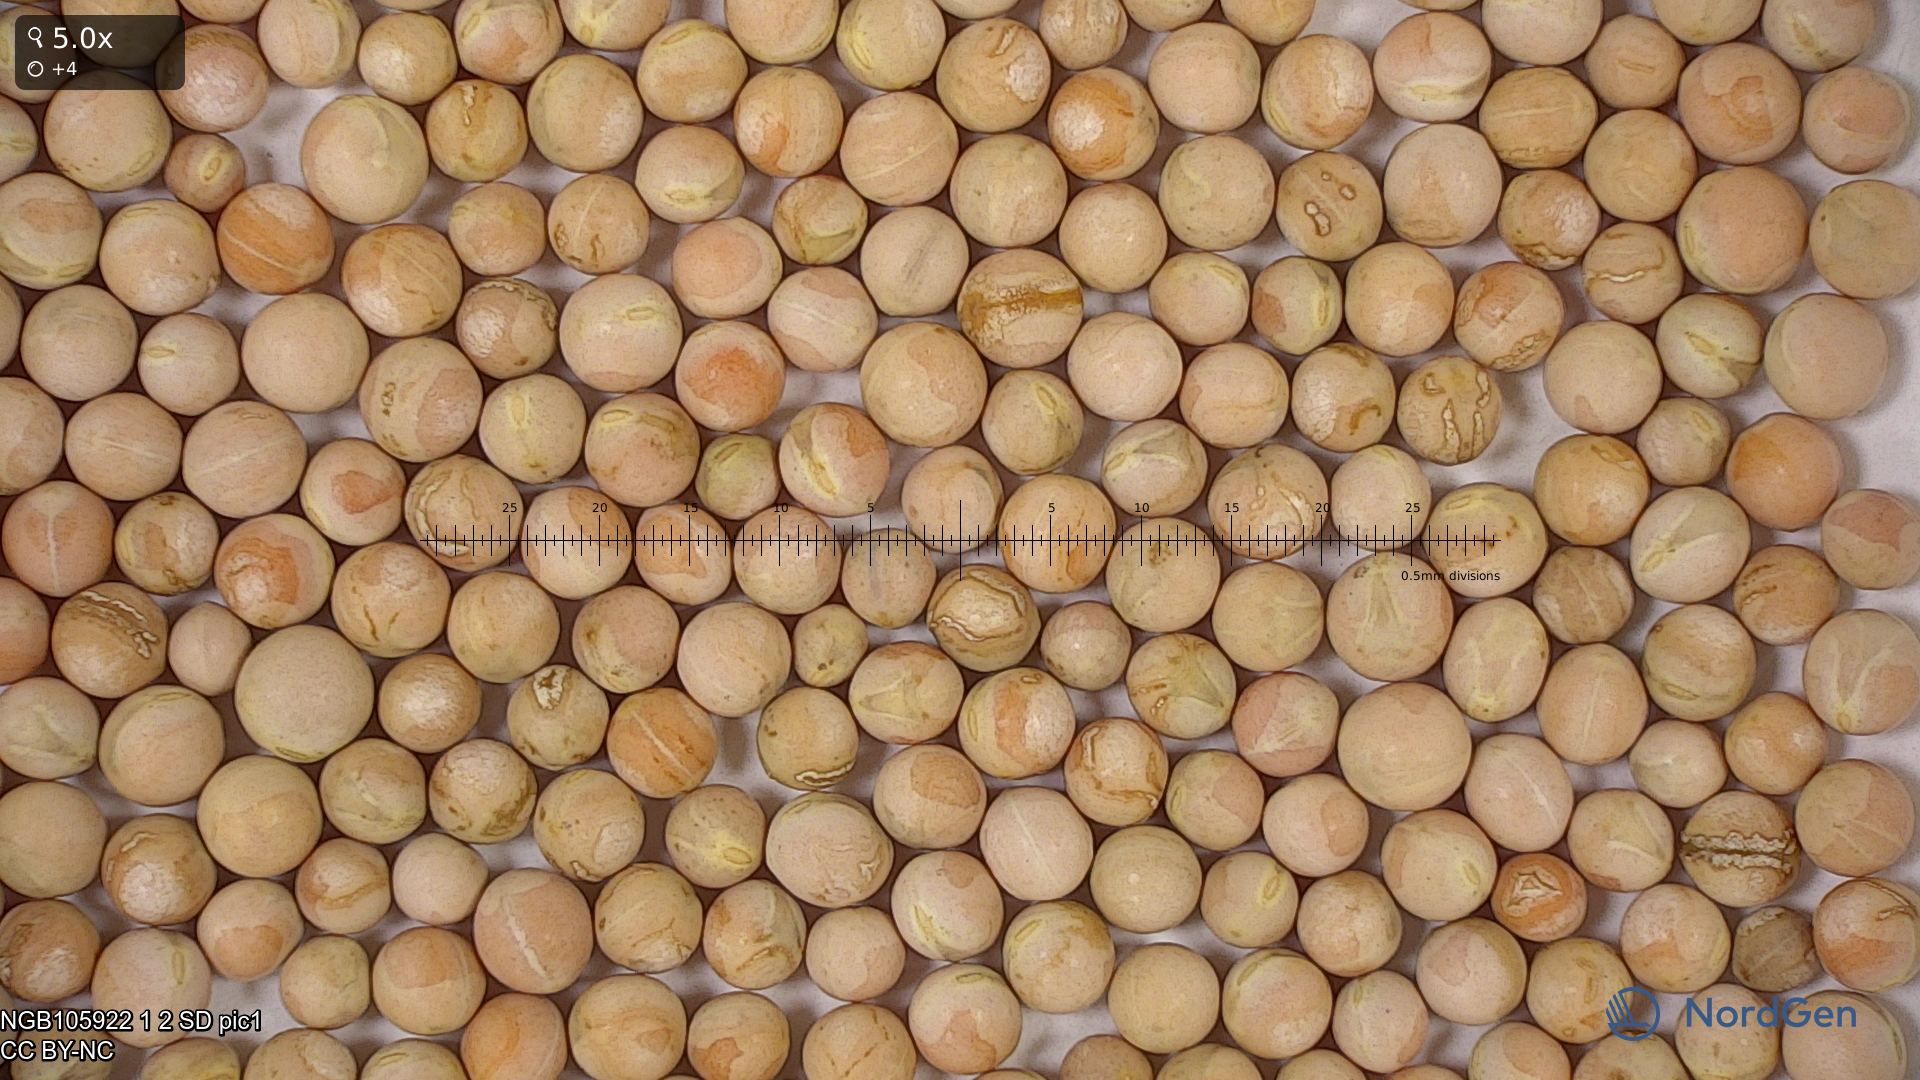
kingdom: Plantae
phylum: Tracheophyta
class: Magnoliopsida
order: Fabales
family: Fabaceae
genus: Lathyrus
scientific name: Lathyrus oleraceus
